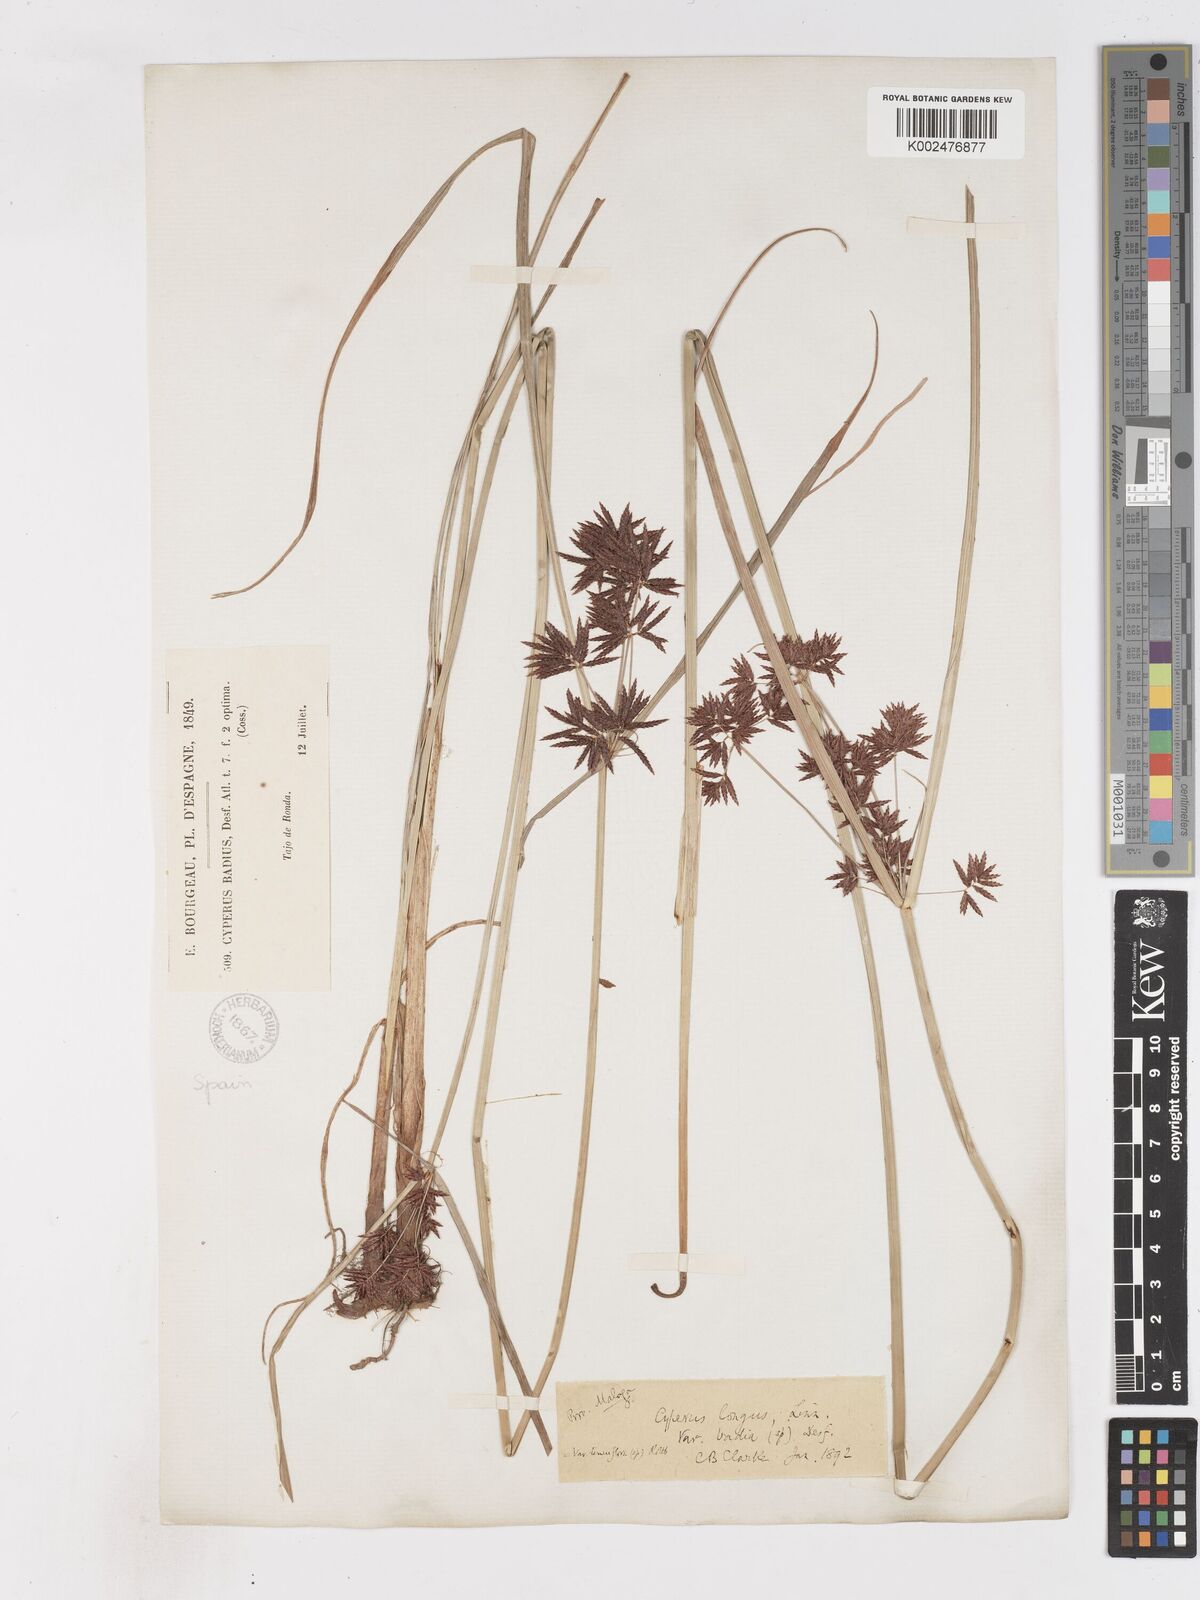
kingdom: Plantae
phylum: Tracheophyta
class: Liliopsida
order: Poales
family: Cyperaceae
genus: Cyperus
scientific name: Cyperus longus
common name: Galingale
